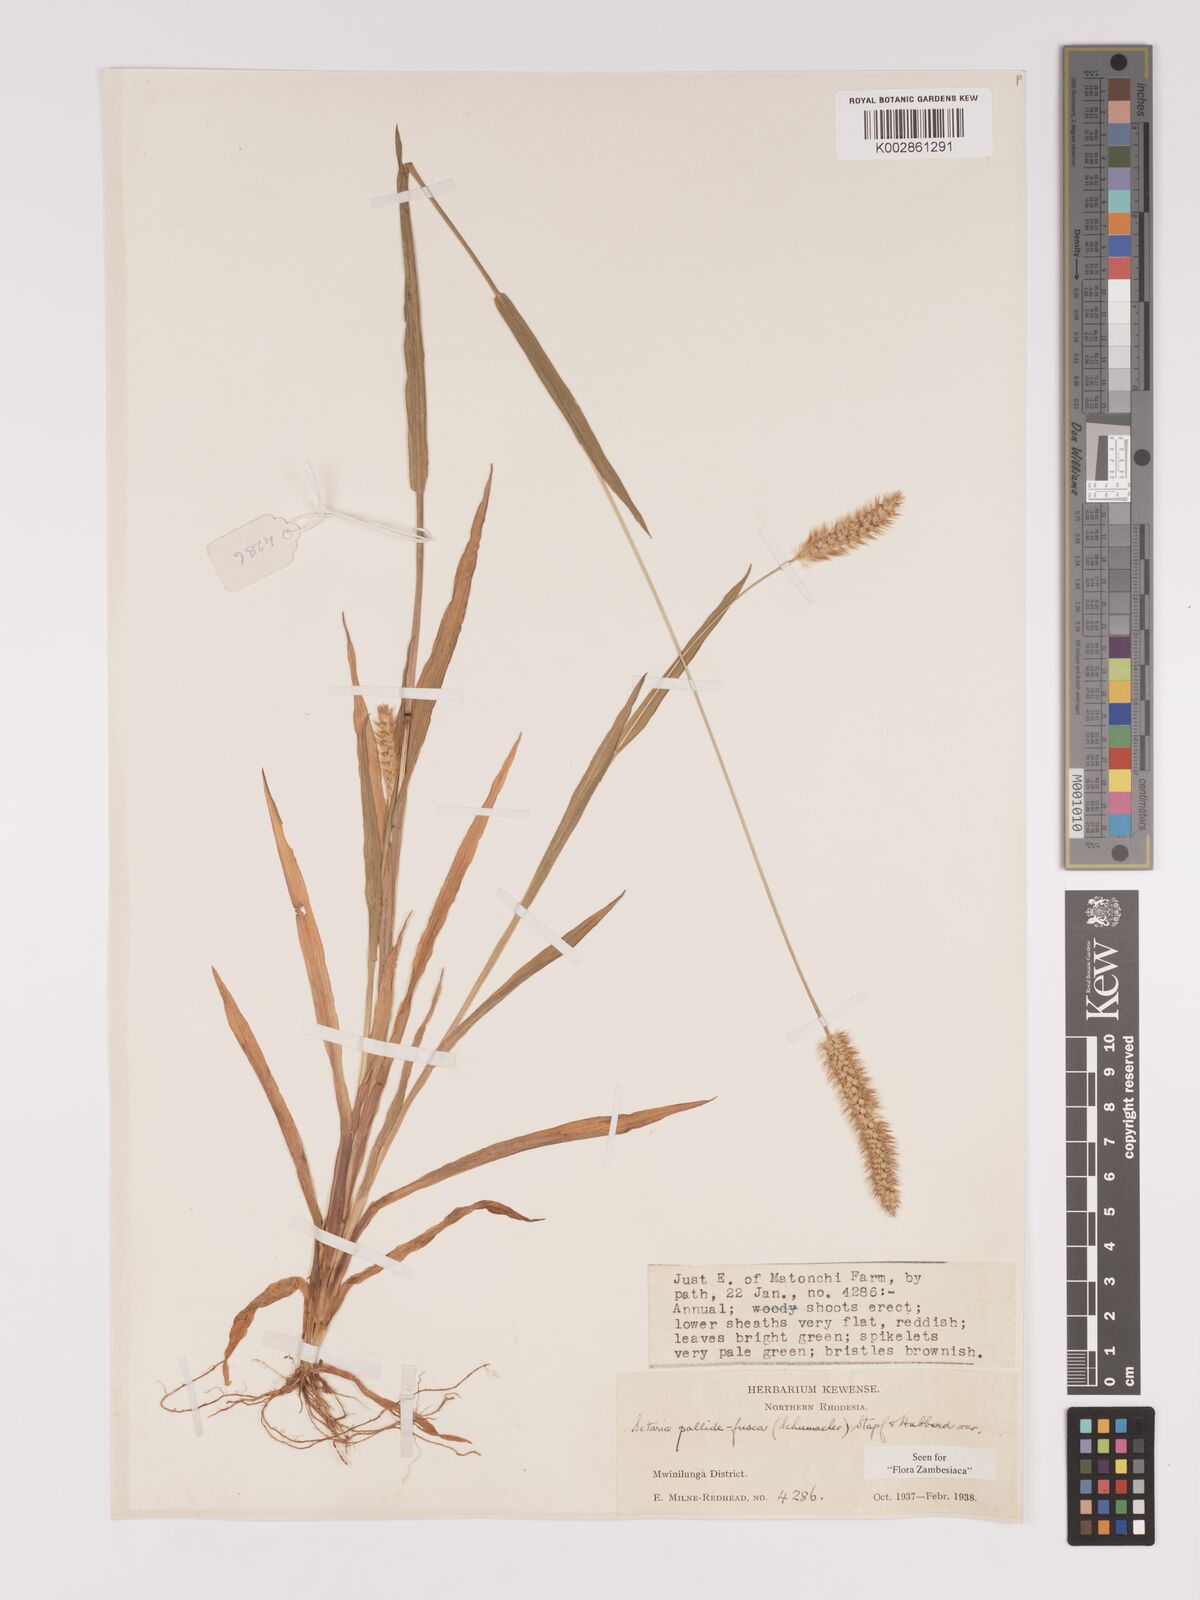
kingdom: Plantae
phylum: Tracheophyta
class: Liliopsida
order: Poales
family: Poaceae
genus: Setaria
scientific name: Setaria pumila
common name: Yellow bristle-grass
